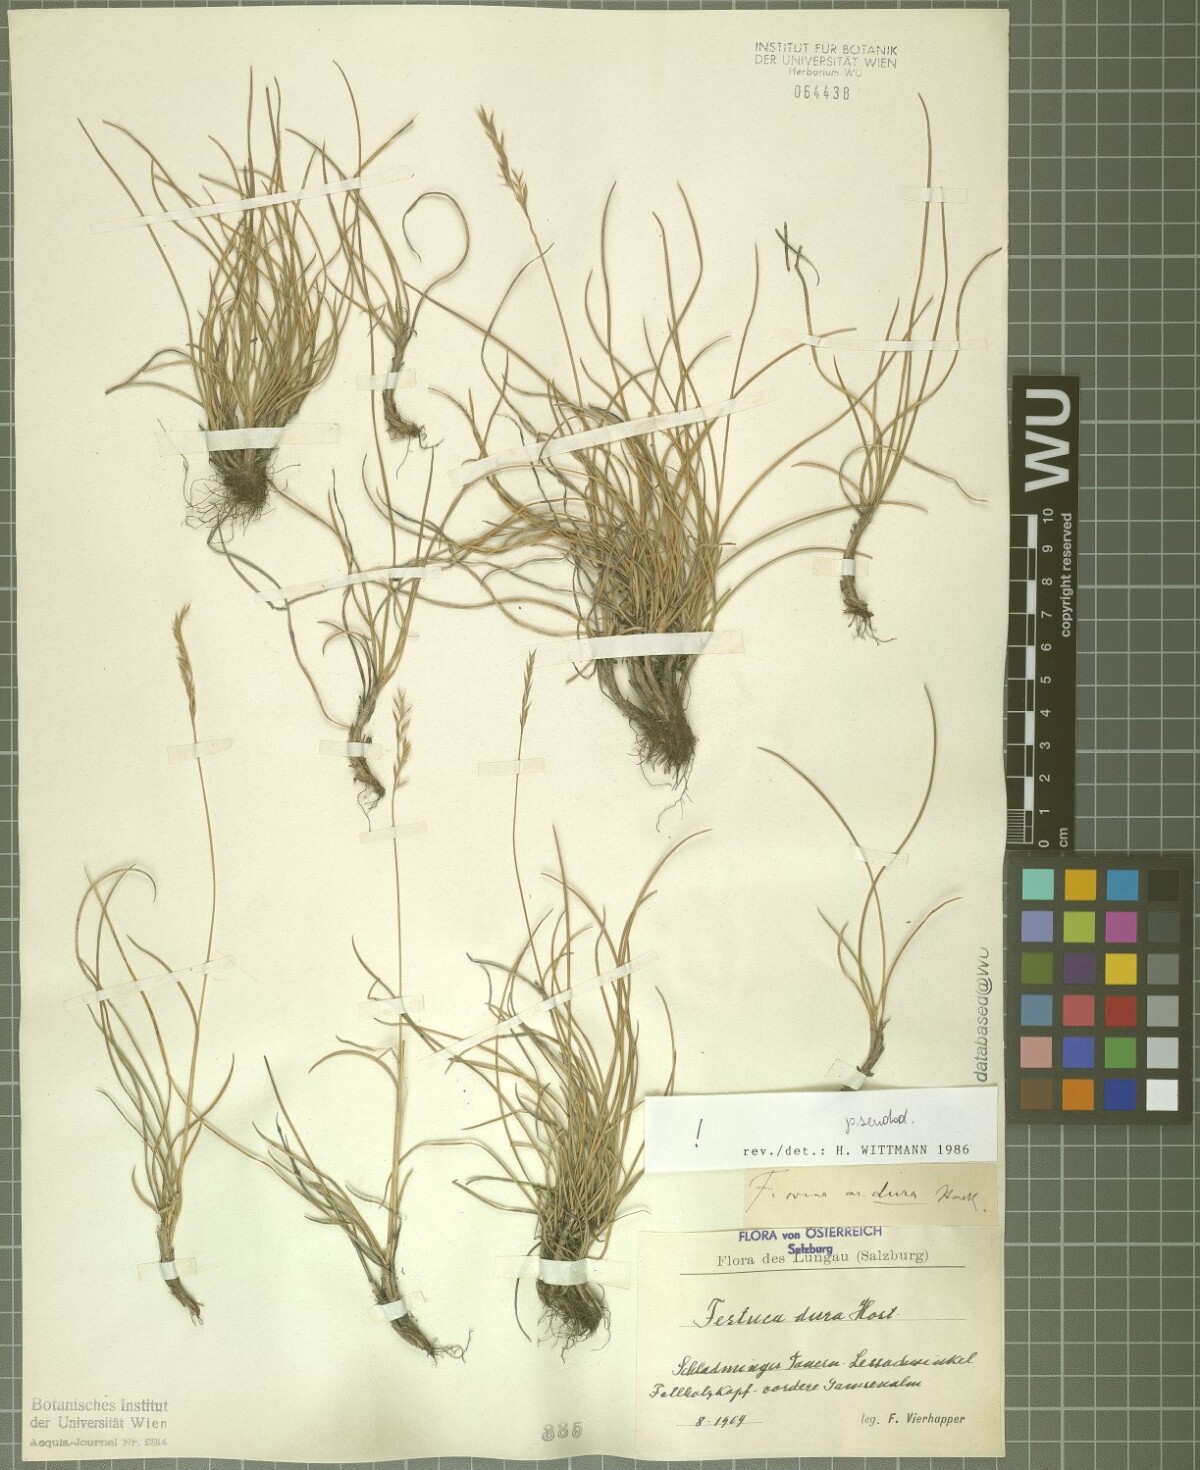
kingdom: Plantae
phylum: Tracheophyta
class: Liliopsida
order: Poales
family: Poaceae
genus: Festuca
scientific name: Festuca pseudodura
